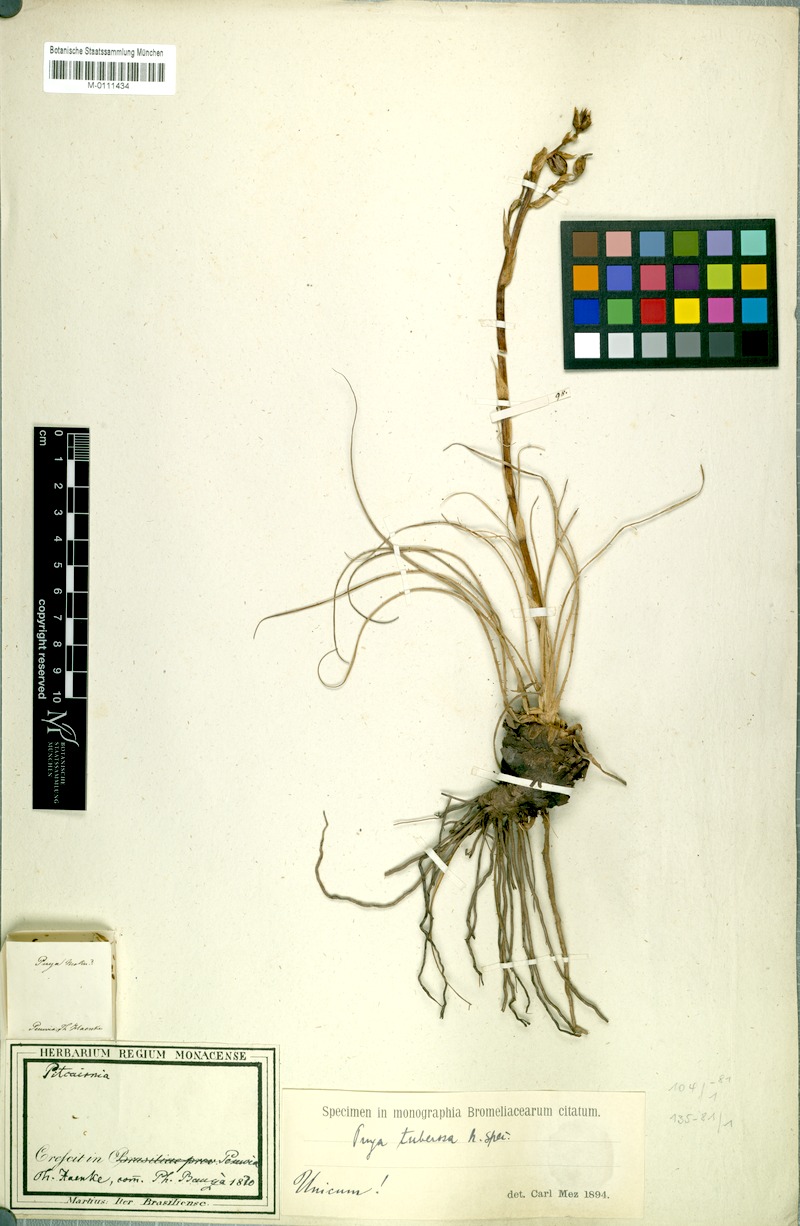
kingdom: Plantae
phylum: Tracheophyta
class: Liliopsida
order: Poales
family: Bromeliaceae
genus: Puya
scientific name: Puya tuberosa
